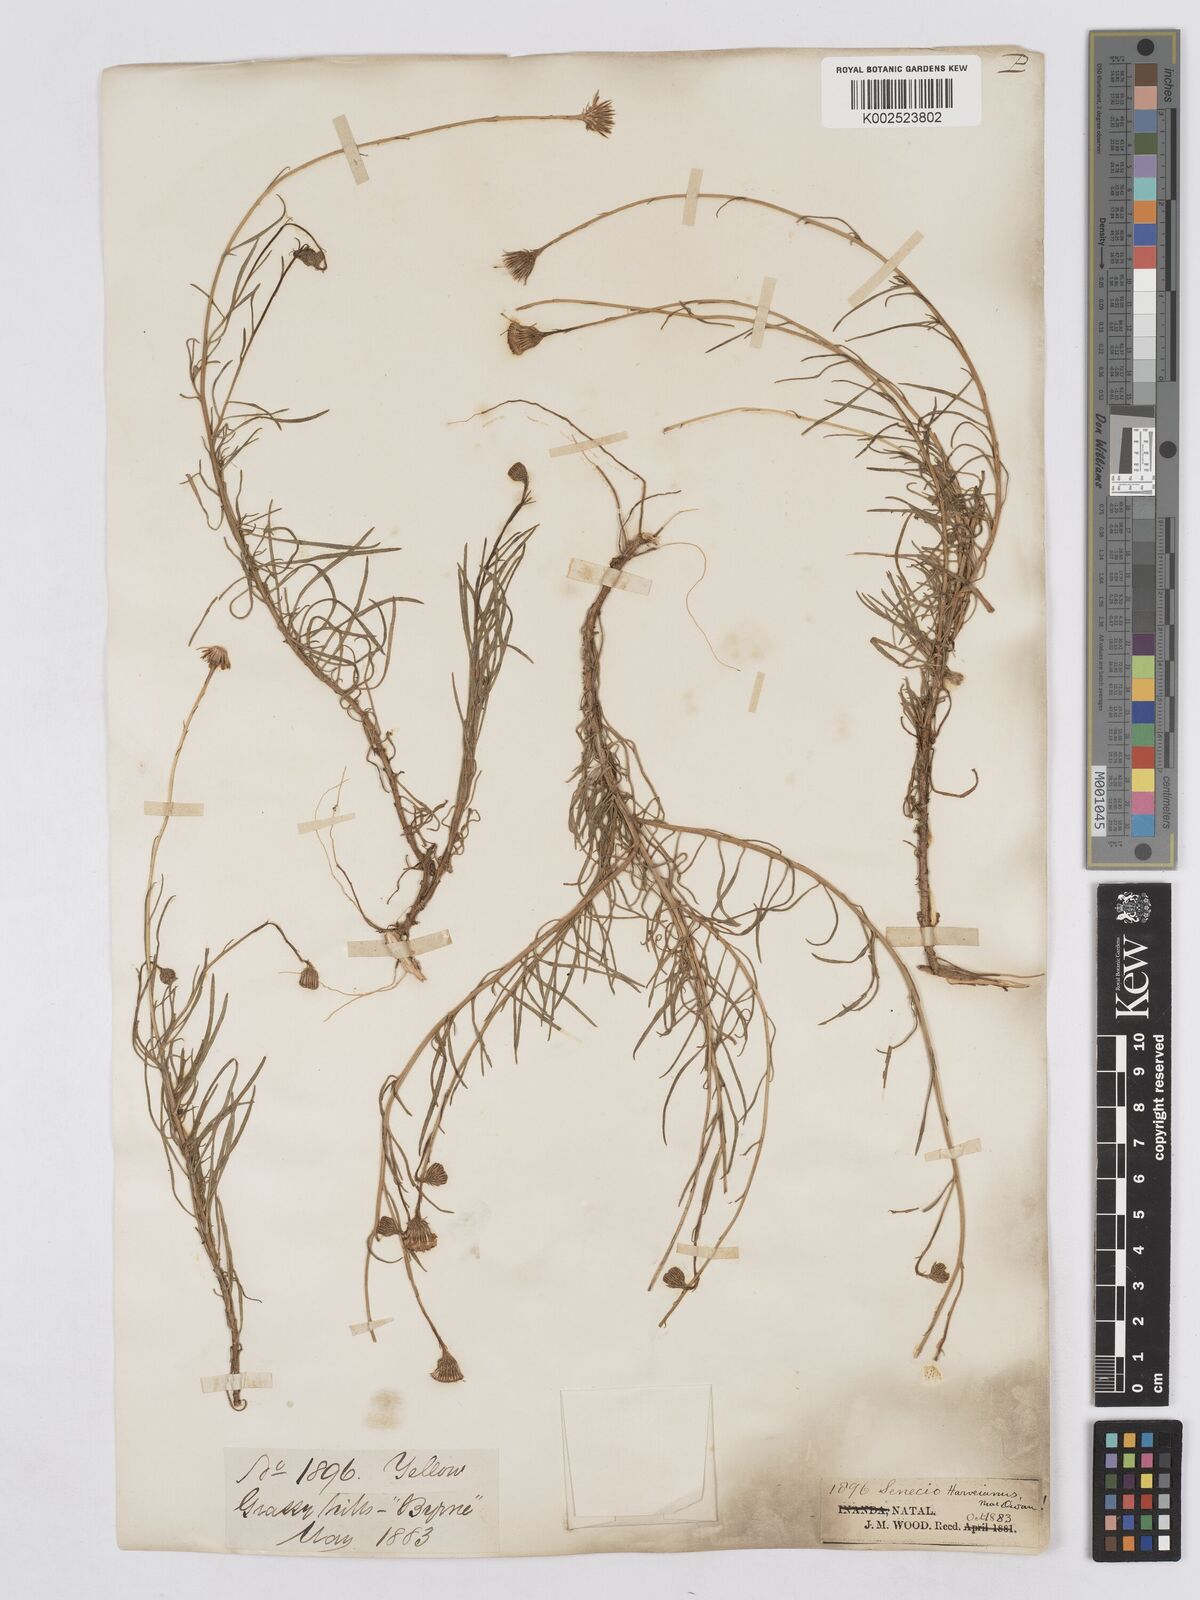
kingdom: Plantae
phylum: Tracheophyta
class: Magnoliopsida
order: Asterales
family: Asteraceae
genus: Senecio
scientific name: Senecio harveyanus
